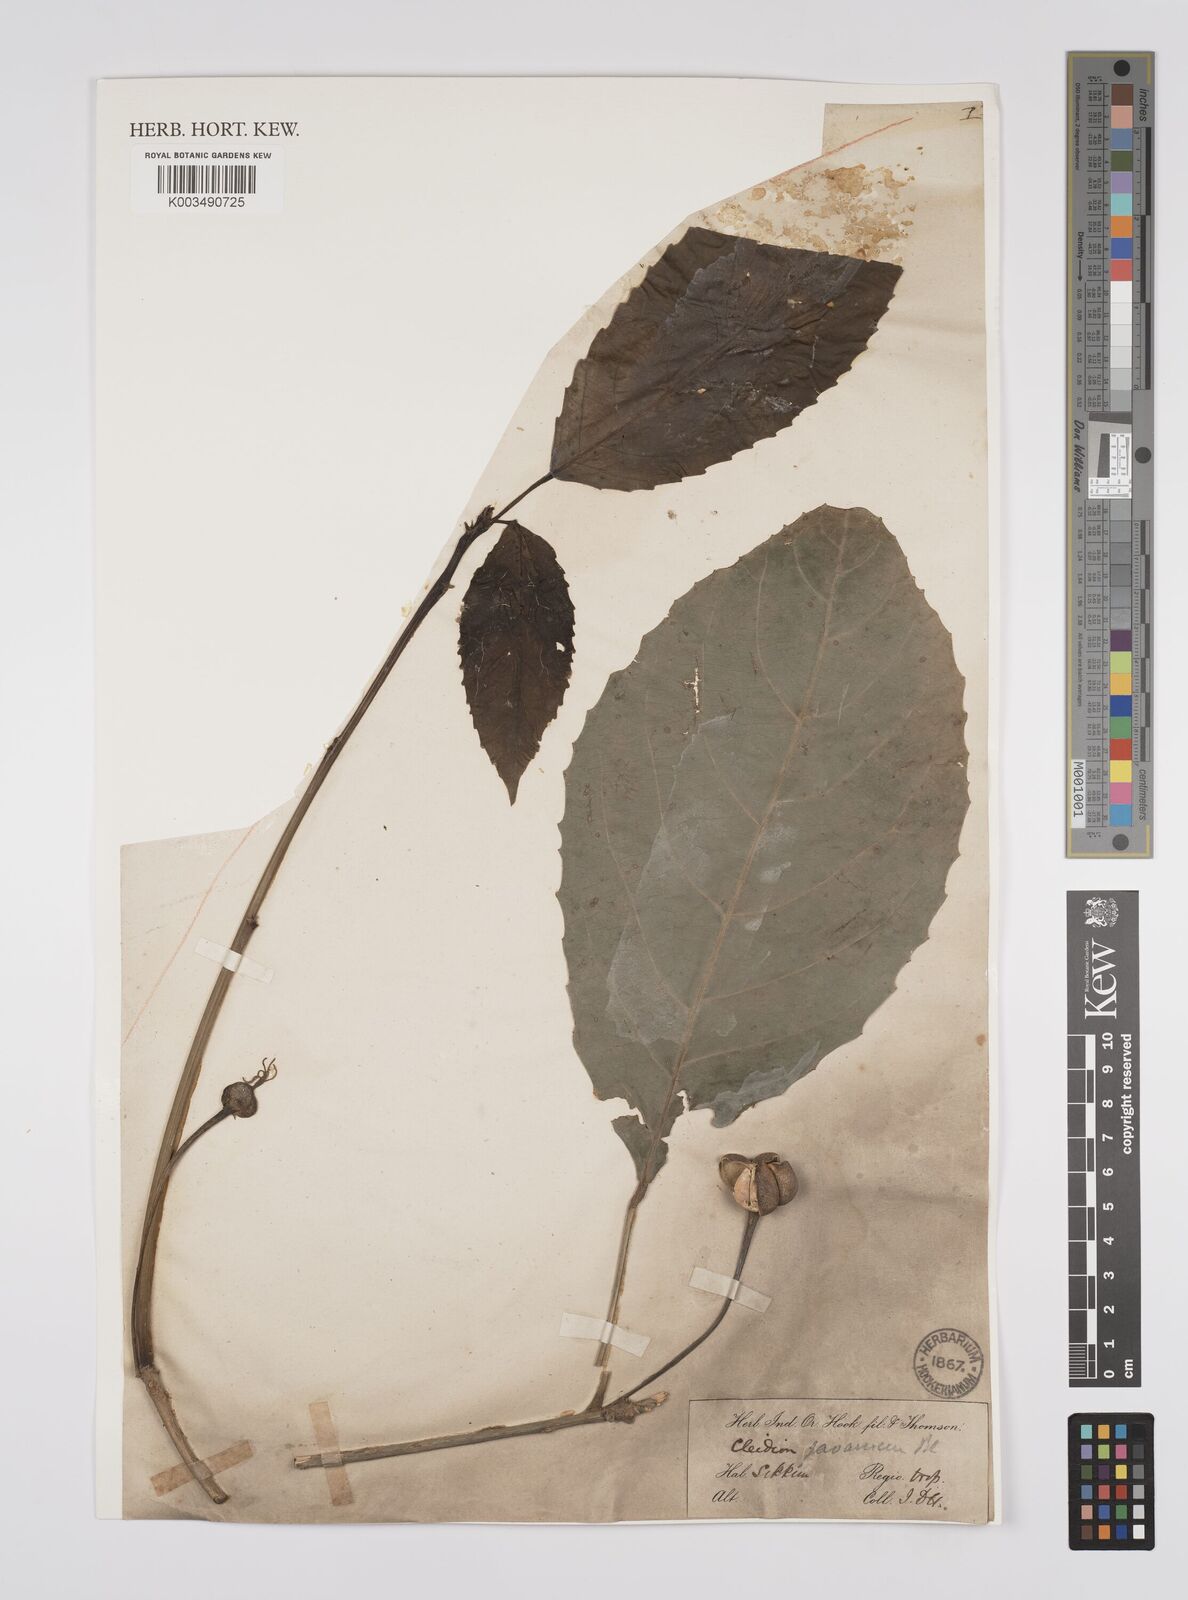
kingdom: Plantae
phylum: Tracheophyta
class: Magnoliopsida
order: Malpighiales
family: Euphorbiaceae
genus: Acalypha
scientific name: Acalypha spiciflora
